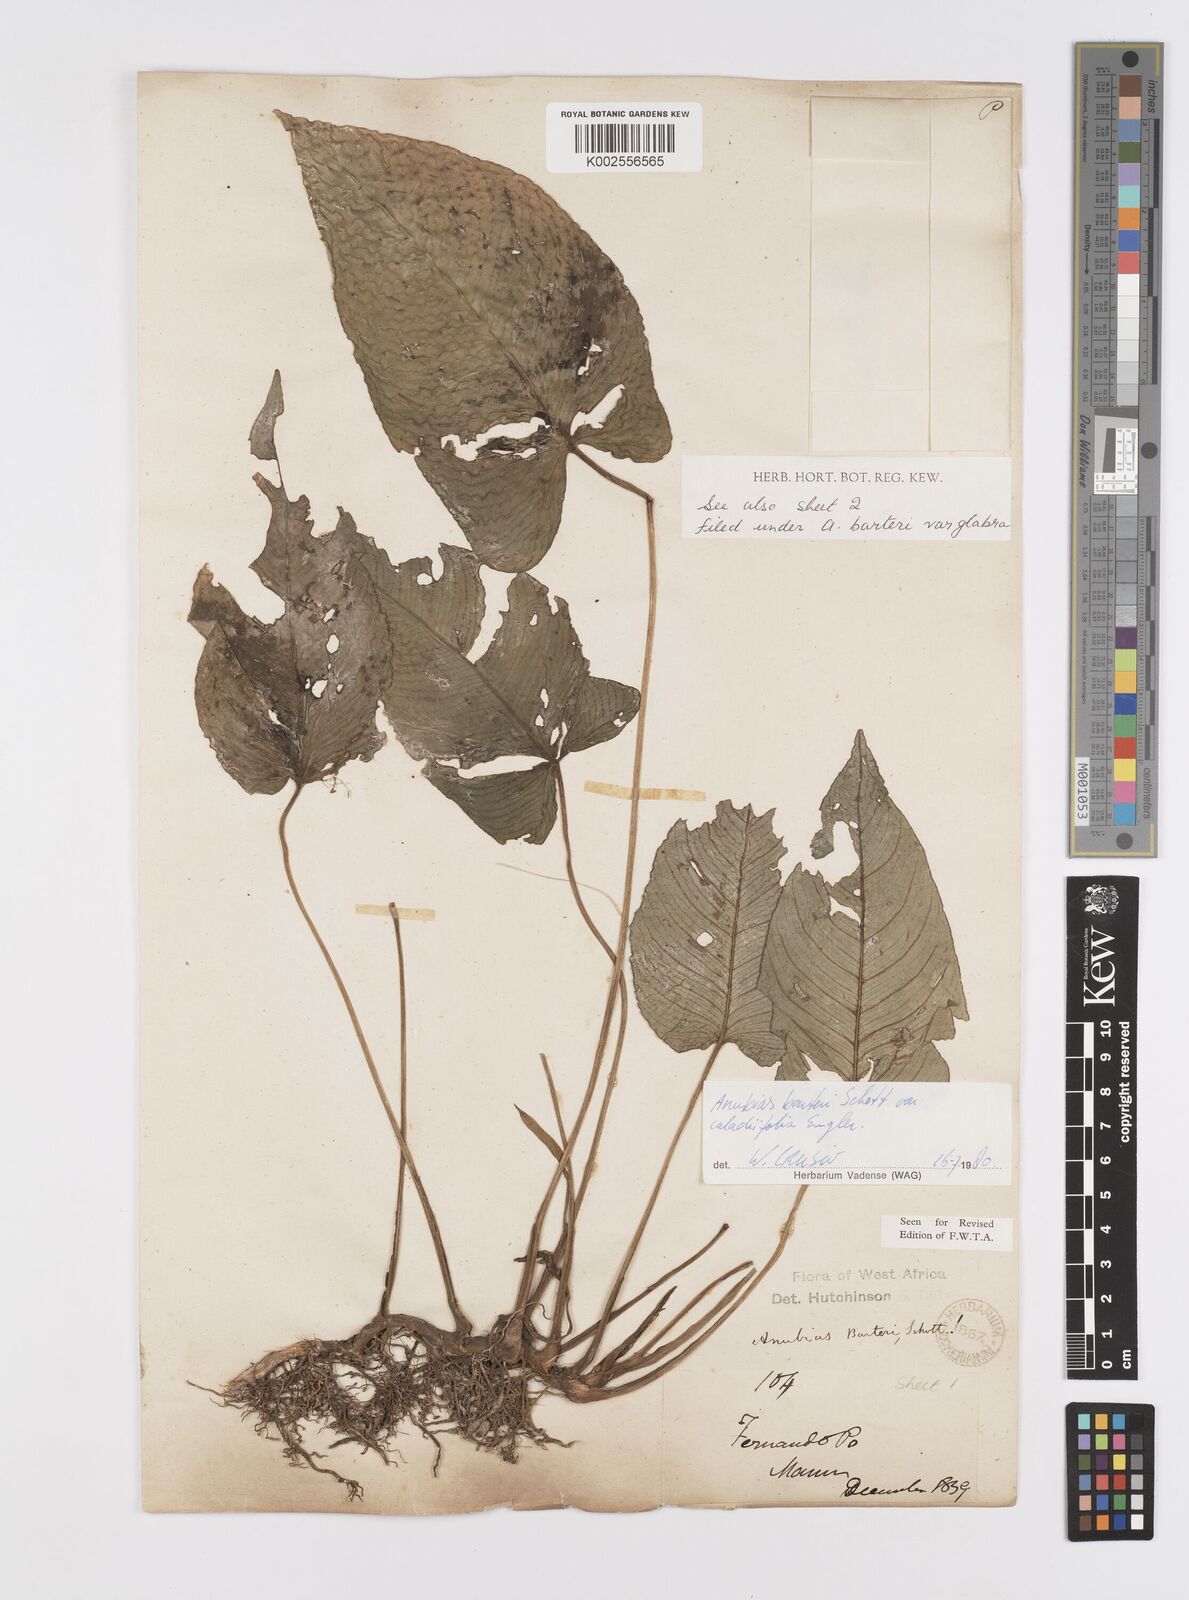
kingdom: Plantae
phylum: Tracheophyta
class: Liliopsida
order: Alismatales
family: Araceae
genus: Anubias
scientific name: Anubias barteri
